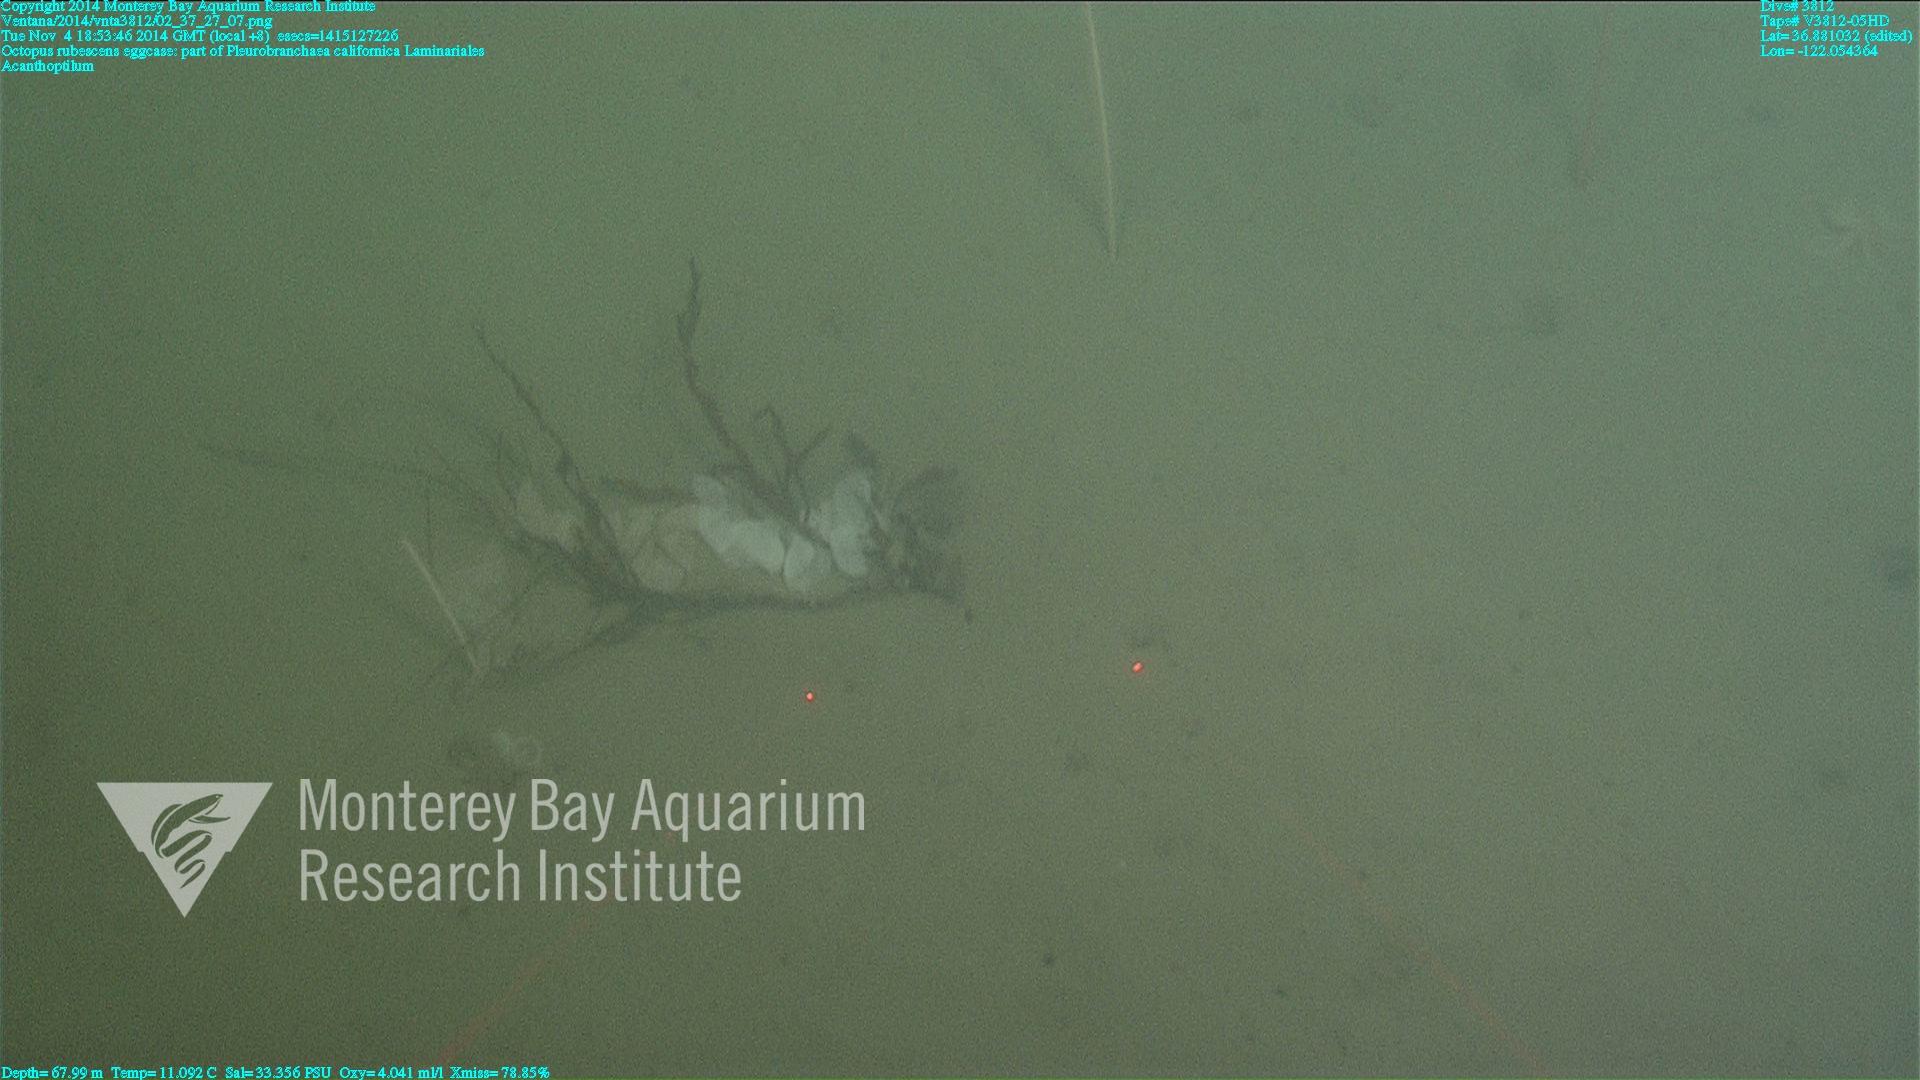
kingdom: Animalia
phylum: Cnidaria
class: Anthozoa
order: Scleralcyonacea
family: Virgulariidae
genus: Acanthoptilum
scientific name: Acanthoptilum
